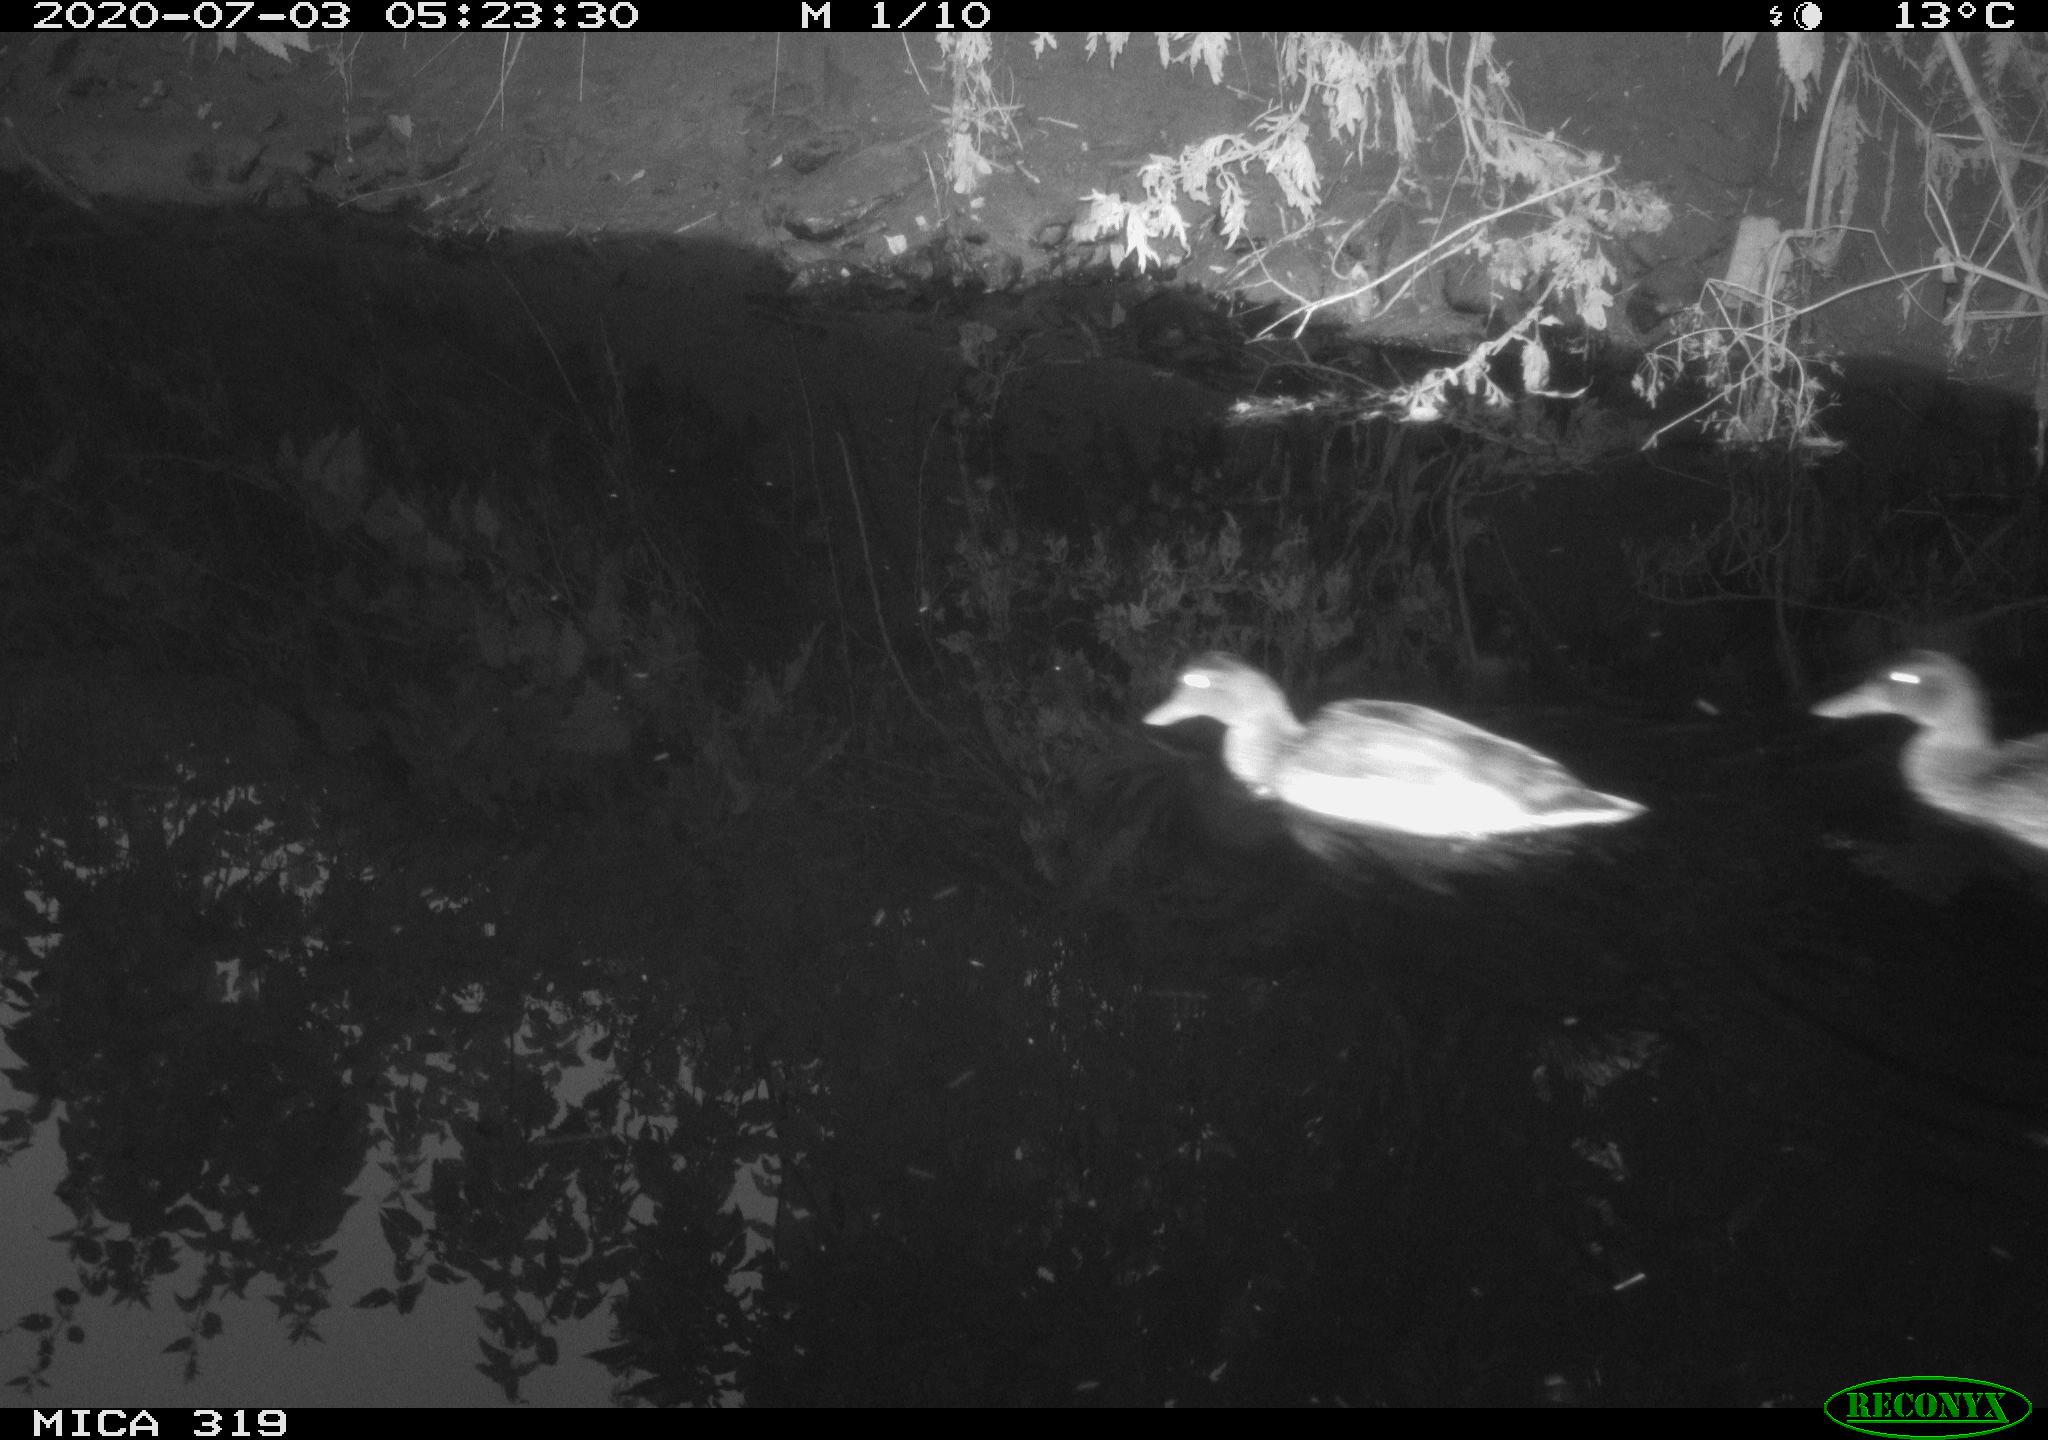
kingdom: Animalia
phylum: Chordata
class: Aves
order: Anseriformes
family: Anatidae
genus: Anas
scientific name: Anas platyrhynchos
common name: Mallard
